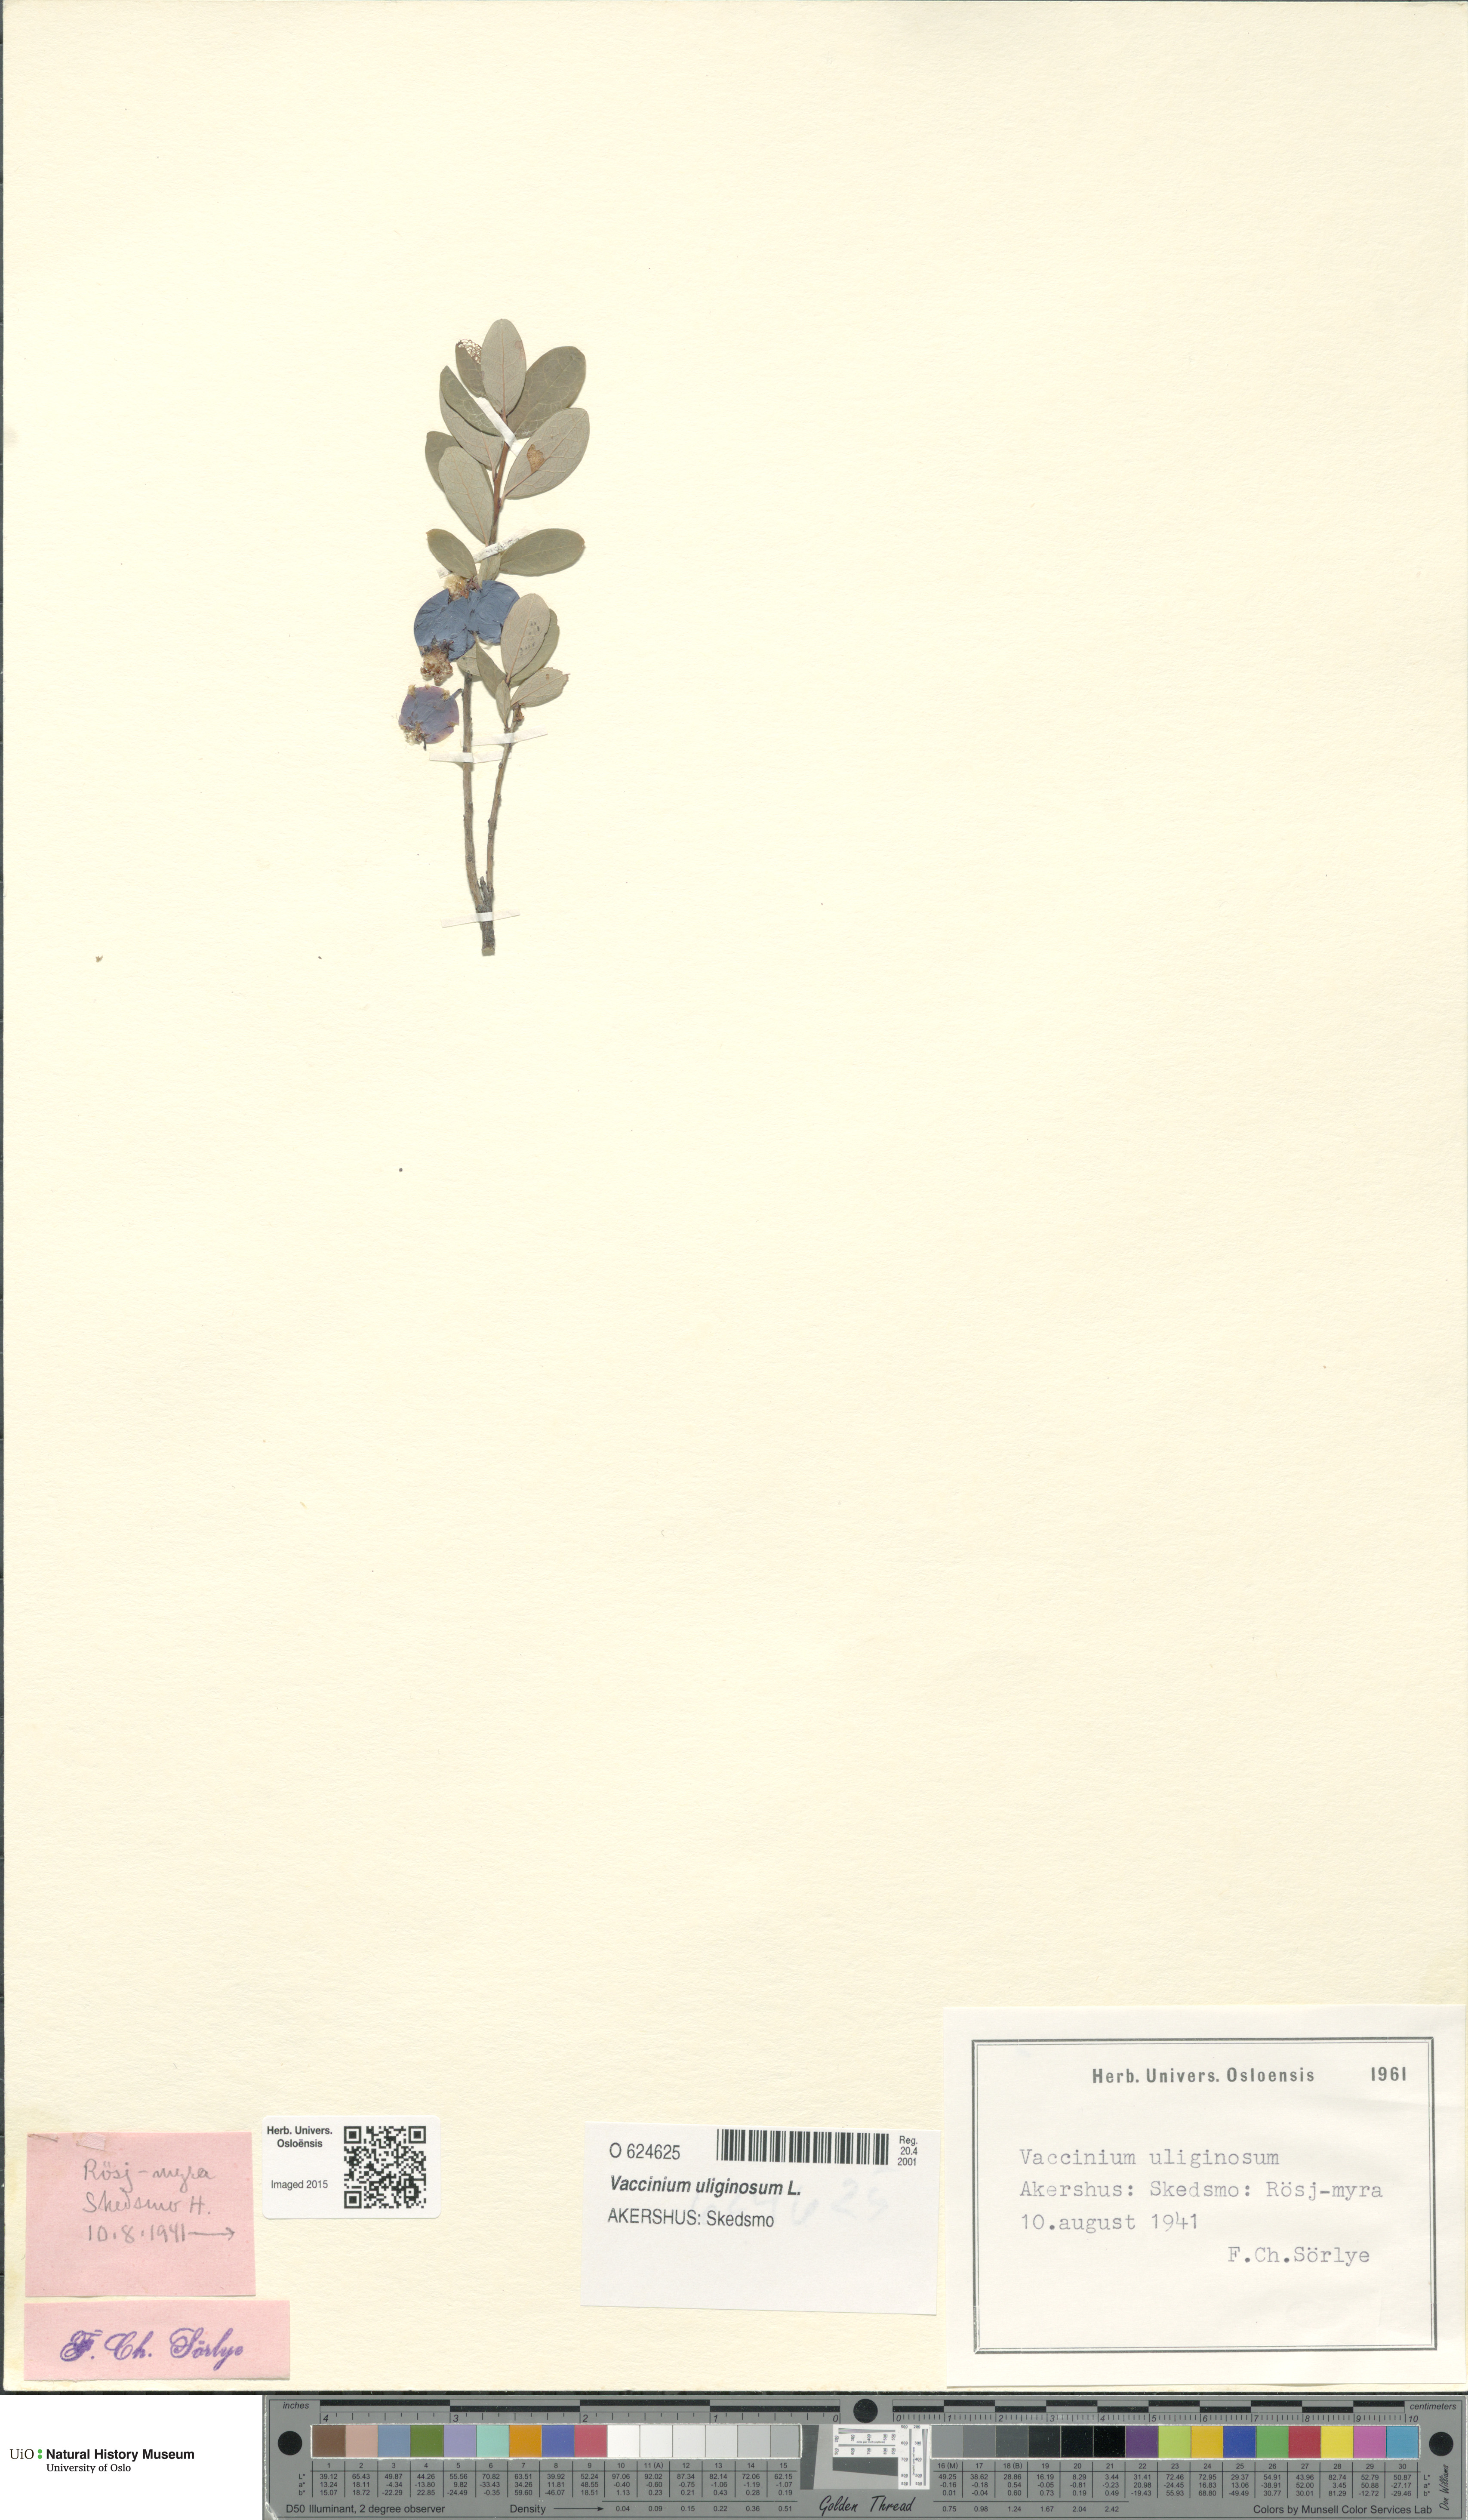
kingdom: Plantae
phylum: Tracheophyta
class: Magnoliopsida
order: Ericales
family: Ericaceae
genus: Vaccinium
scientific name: Vaccinium uliginosum
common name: Bog bilberry
